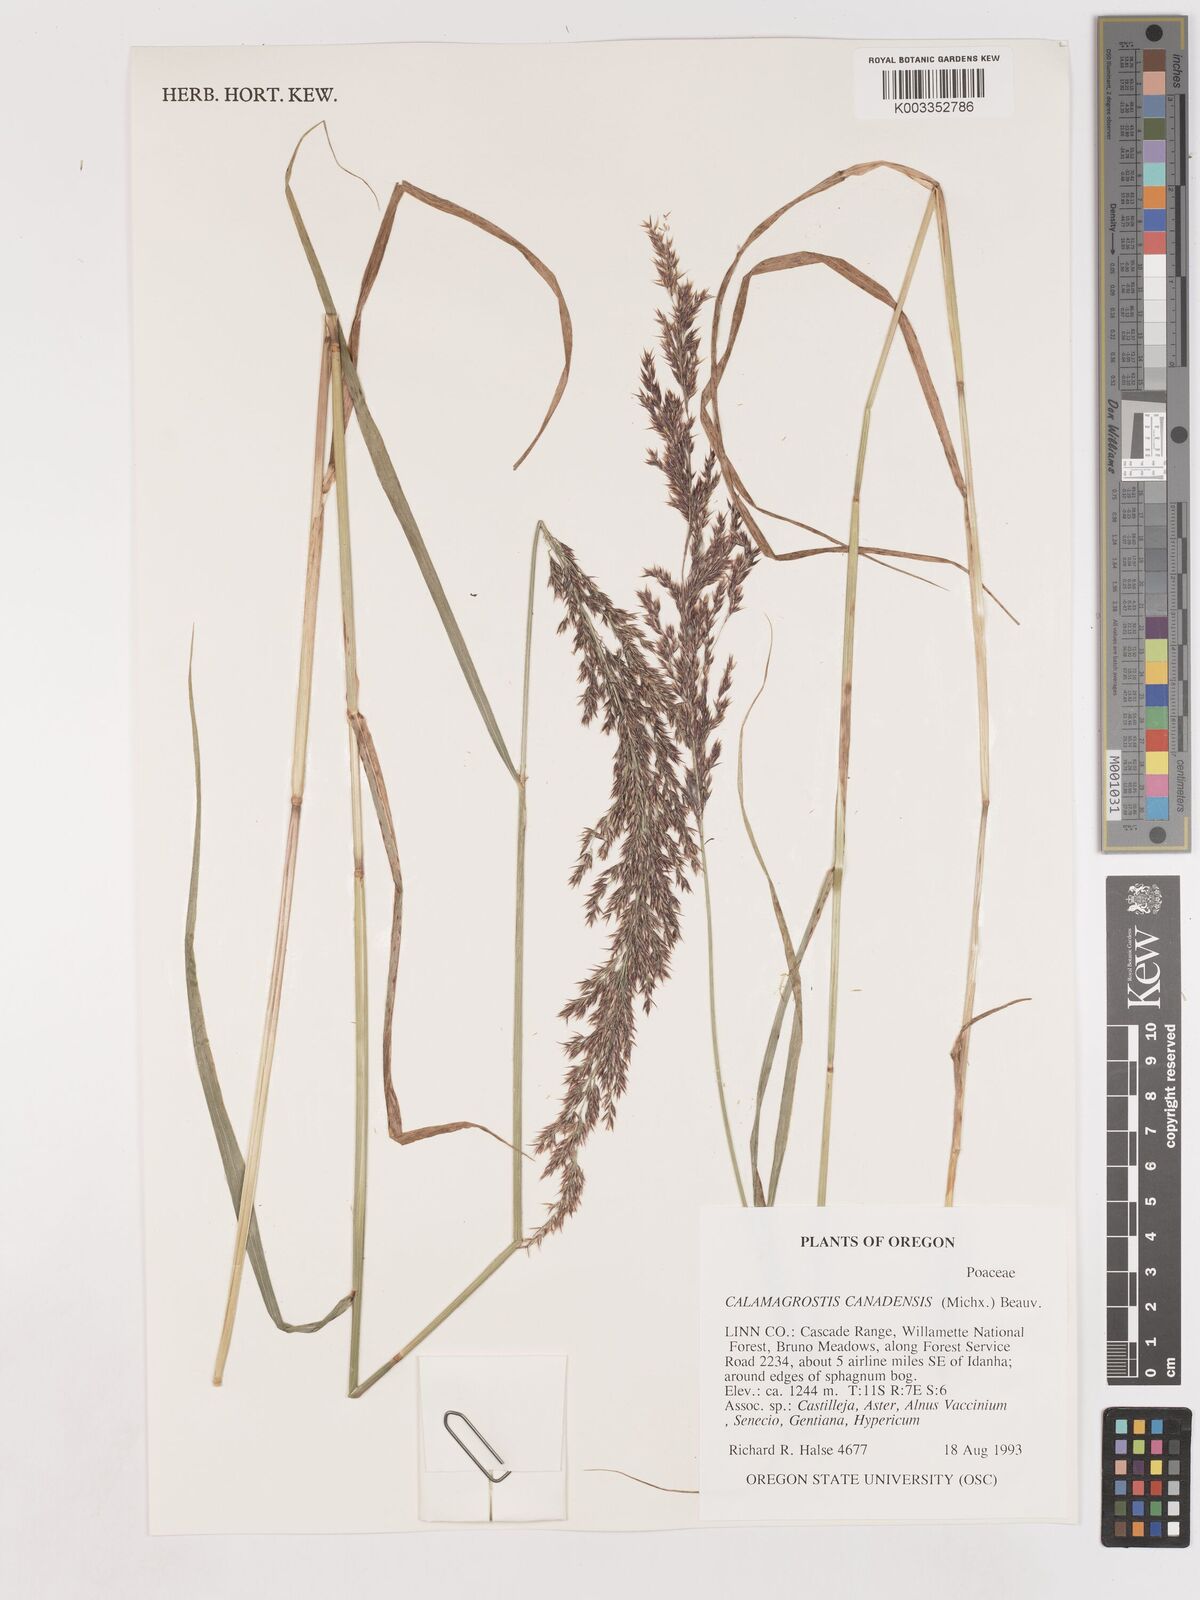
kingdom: Plantae
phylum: Tracheophyta
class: Liliopsida
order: Poales
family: Poaceae
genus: Calamagrostis
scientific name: Calamagrostis canadensis
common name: Canada bluejoint
